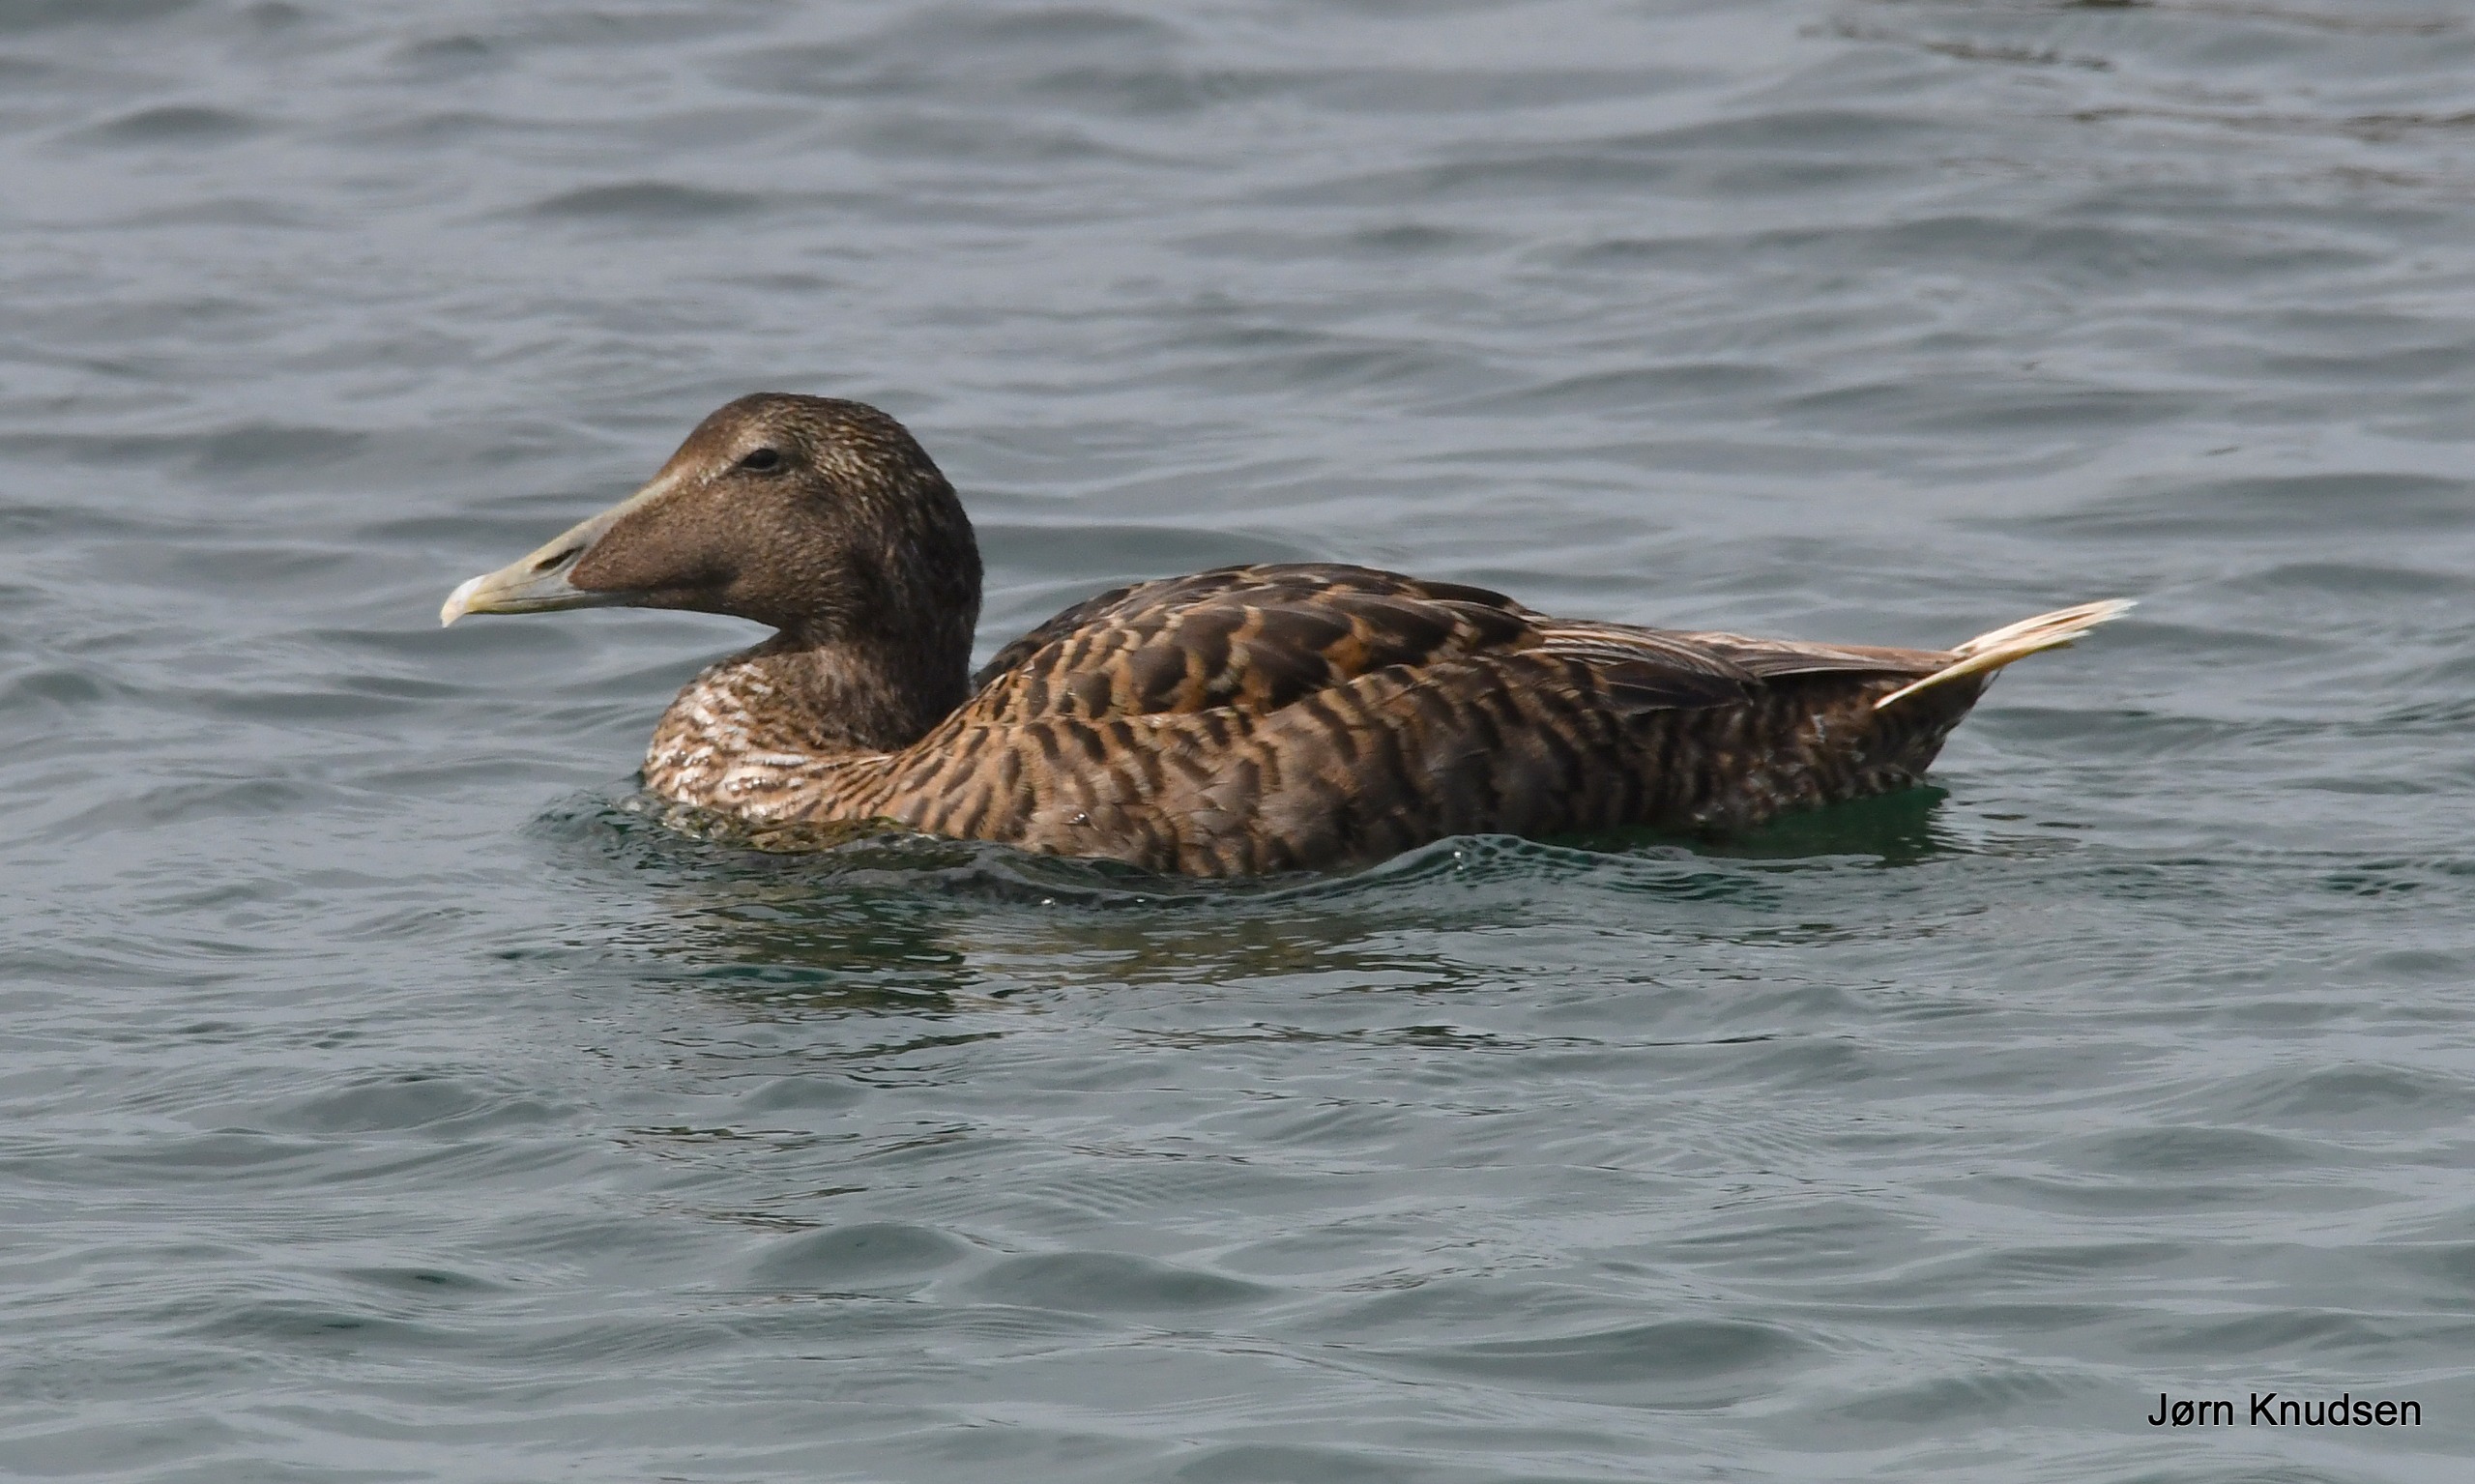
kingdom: Animalia
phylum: Chordata
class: Aves
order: Anseriformes
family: Anatidae
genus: Somateria
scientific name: Somateria mollissima
